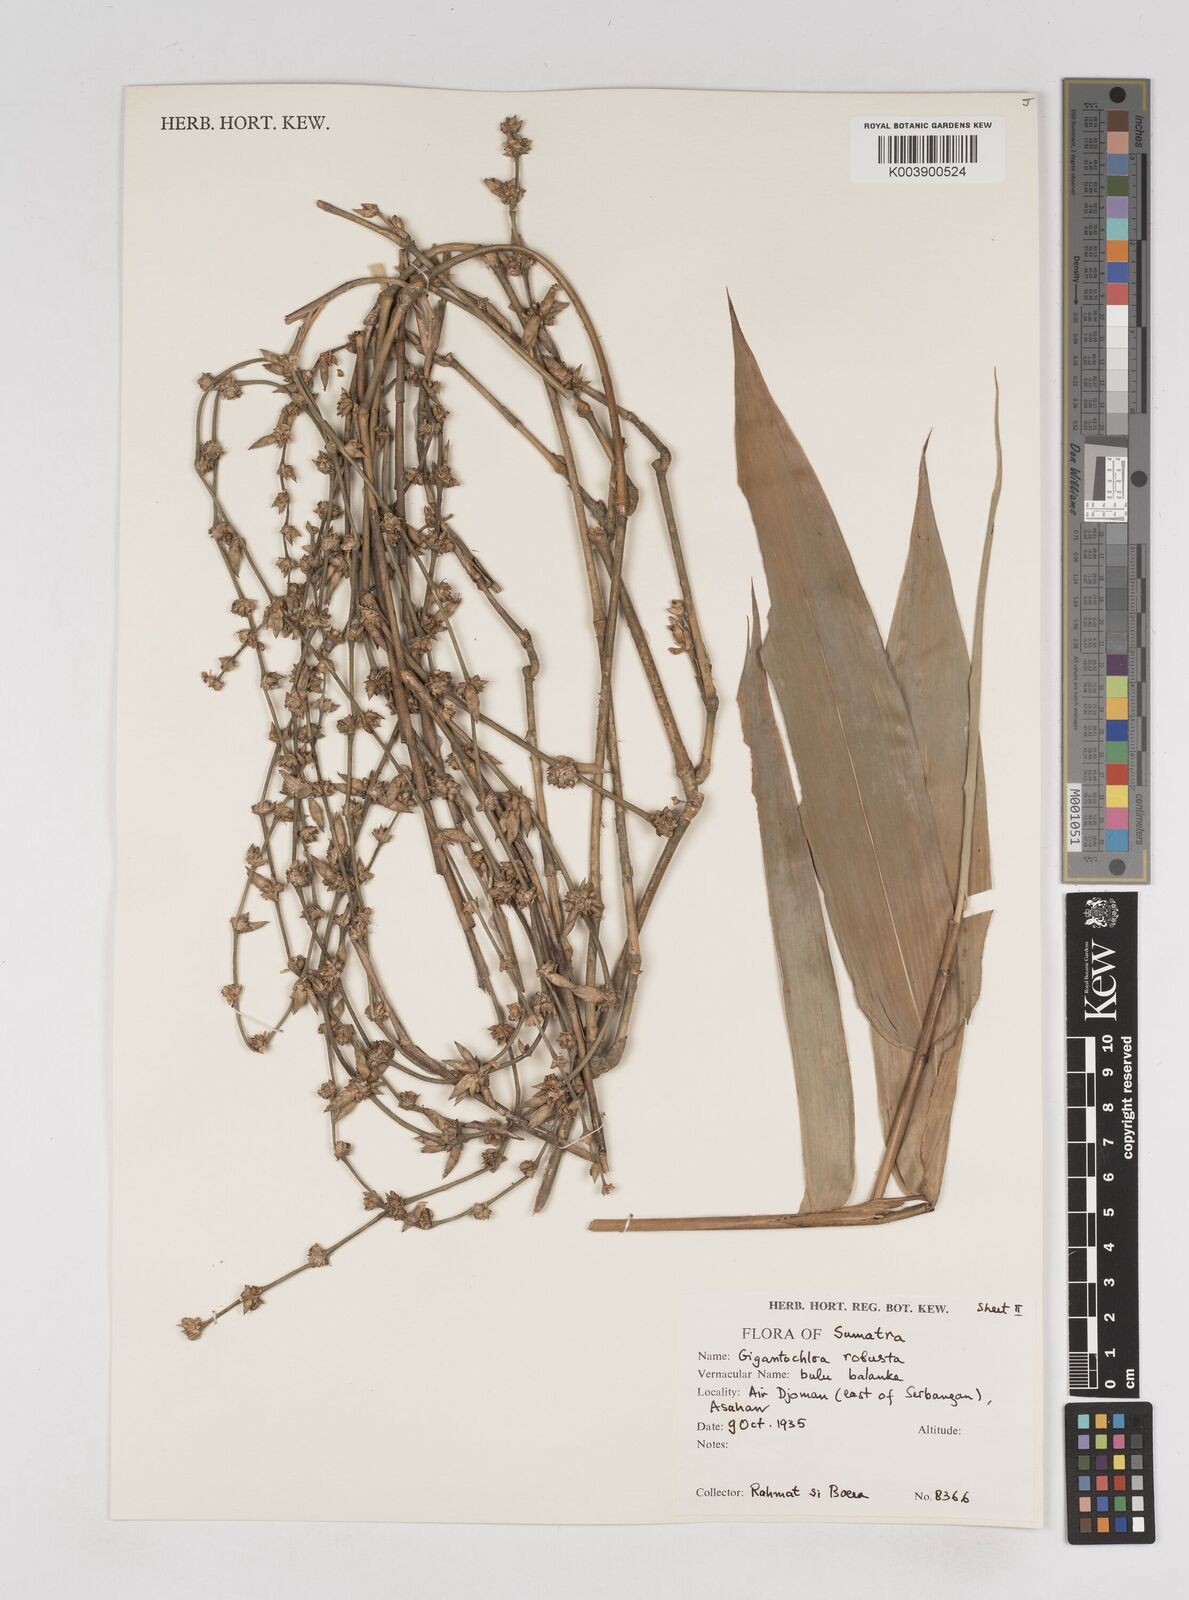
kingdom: Plantae
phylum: Tracheophyta
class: Liliopsida
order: Poales
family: Poaceae
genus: Gigantochloa
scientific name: Gigantochloa
